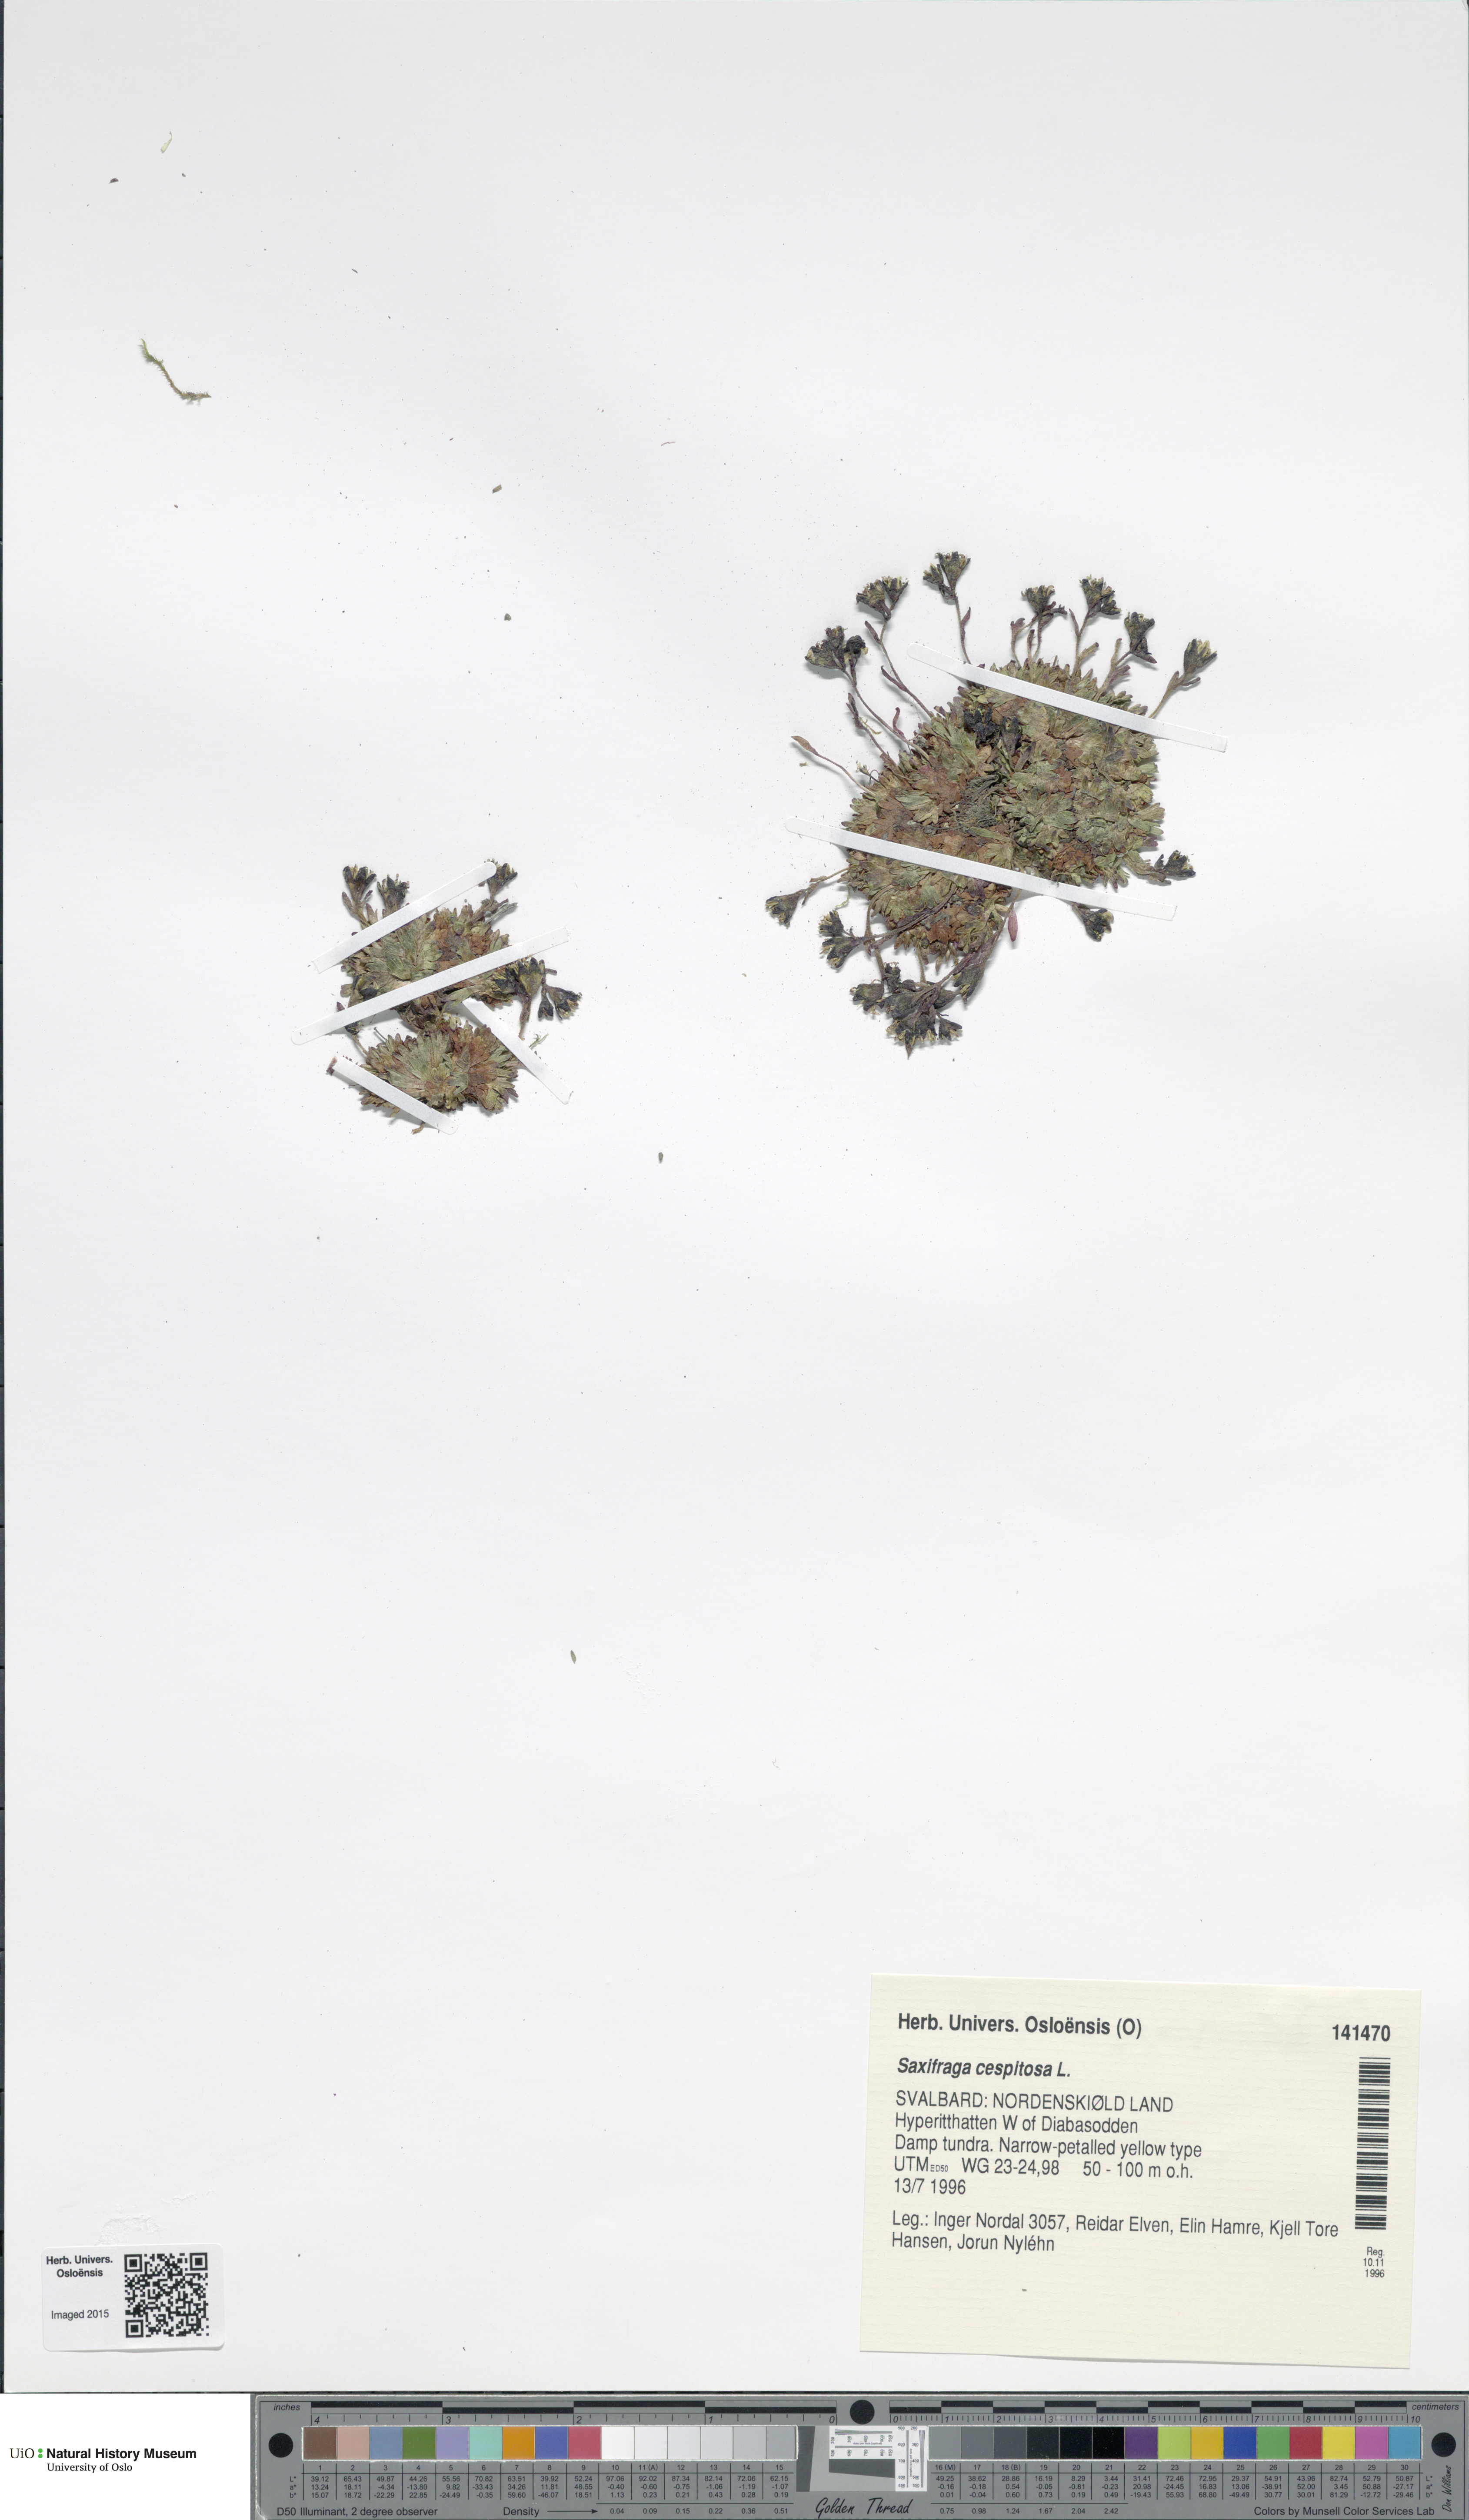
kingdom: Plantae
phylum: Tracheophyta
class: Magnoliopsida
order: Saxifragales
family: Saxifragaceae
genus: Saxifraga
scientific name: Saxifraga cespitosa
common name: Tufted saxifrage
